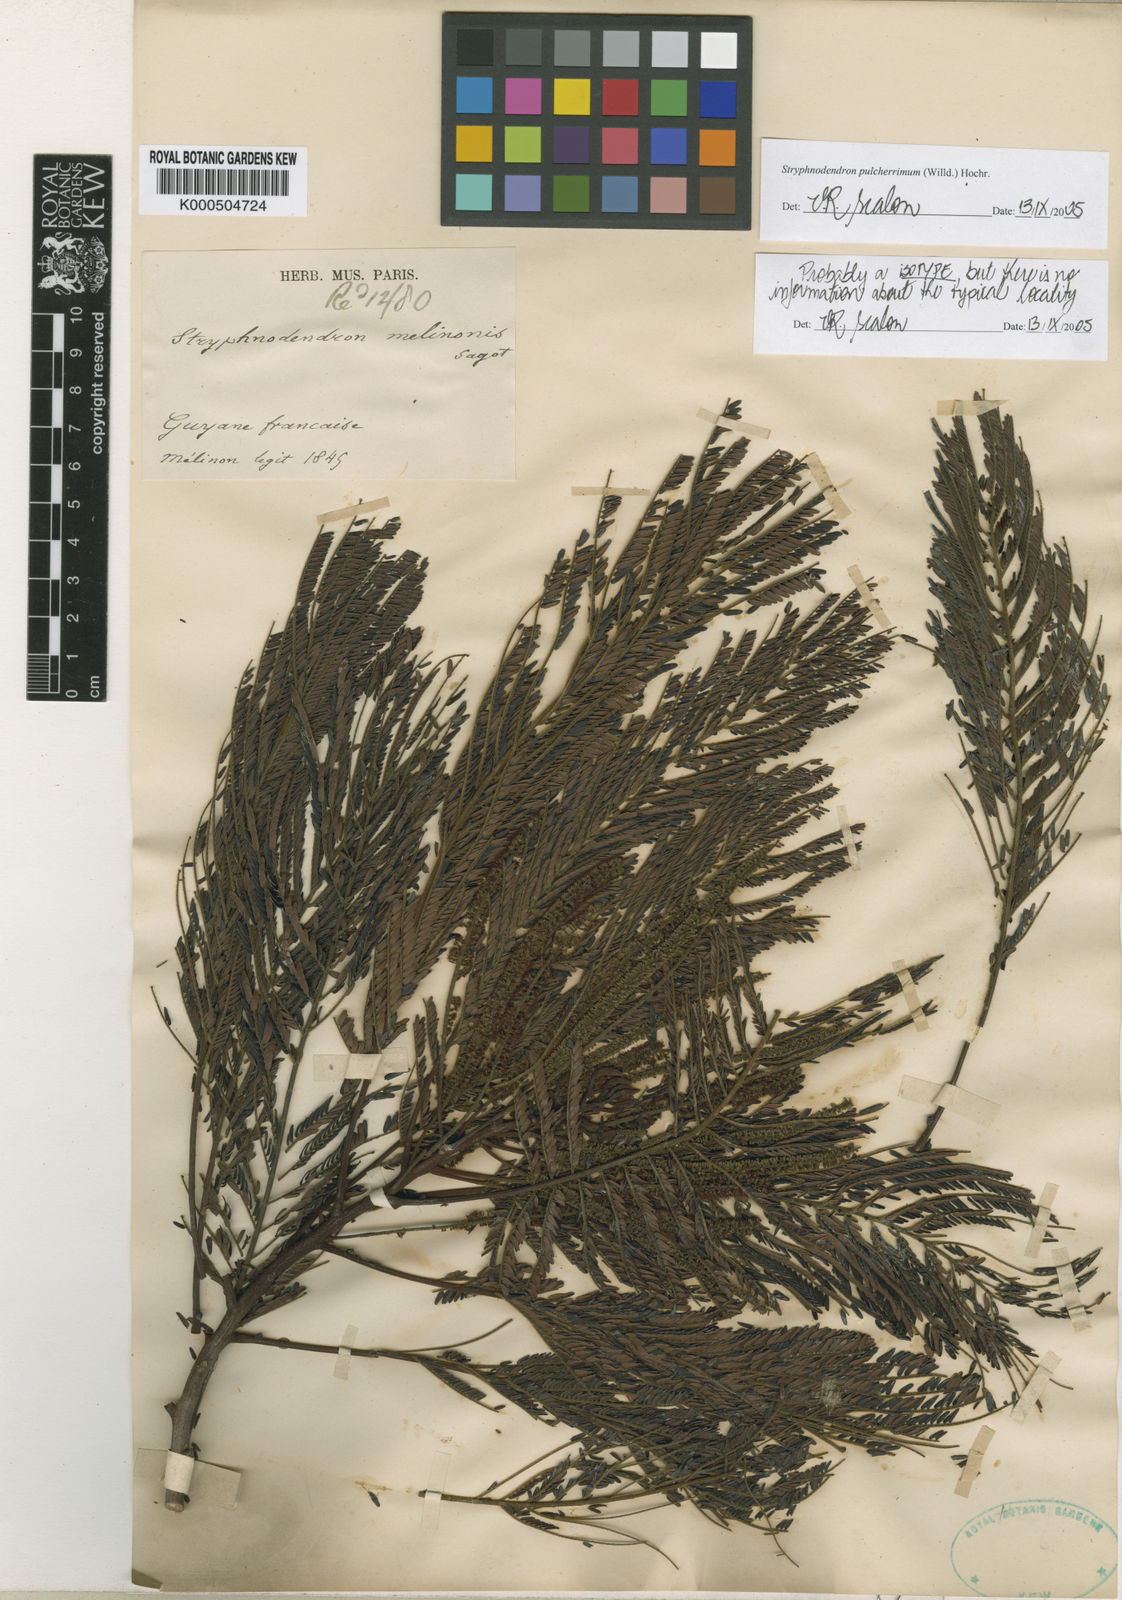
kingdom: Plantae
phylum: Tracheophyta
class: Magnoliopsida
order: Fabales
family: Fabaceae
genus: Stryphnodendron
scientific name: Stryphnodendron pulcherrimum
